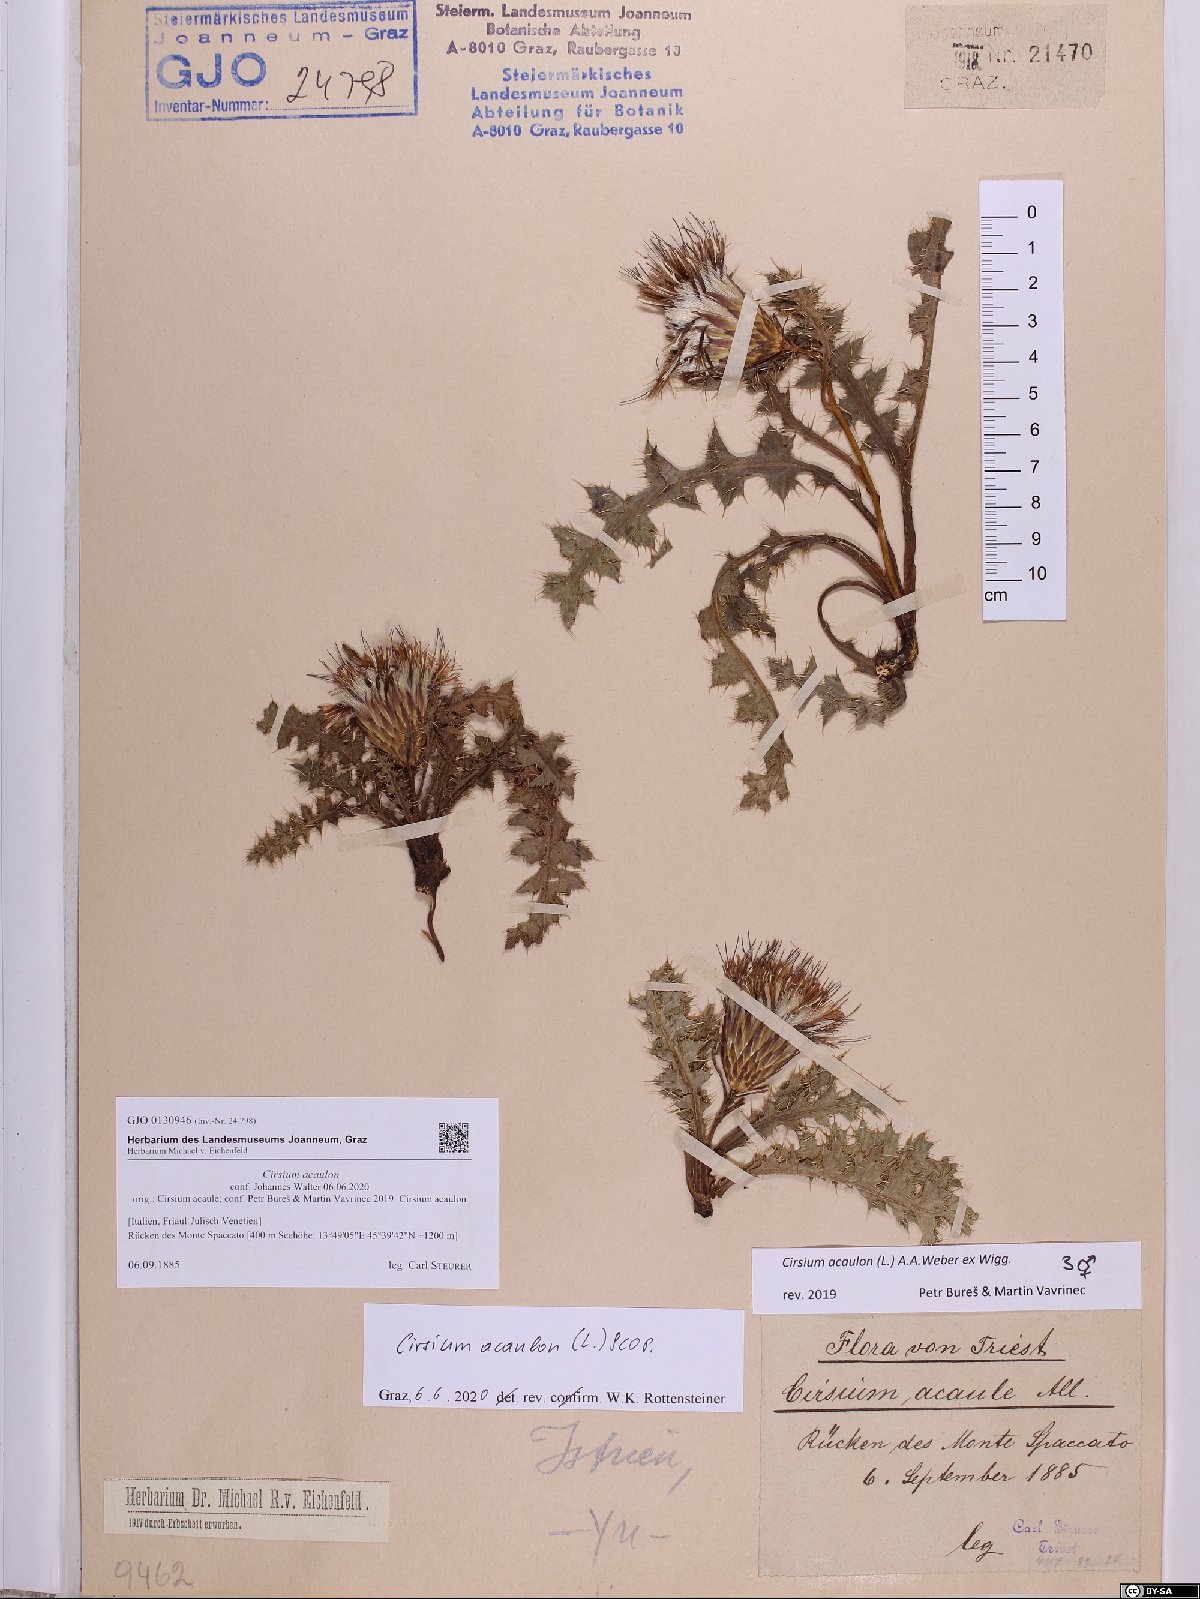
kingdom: Plantae
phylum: Tracheophyta
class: Magnoliopsida
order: Asterales
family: Asteraceae
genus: Cirsium
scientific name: Cirsium acaulon
